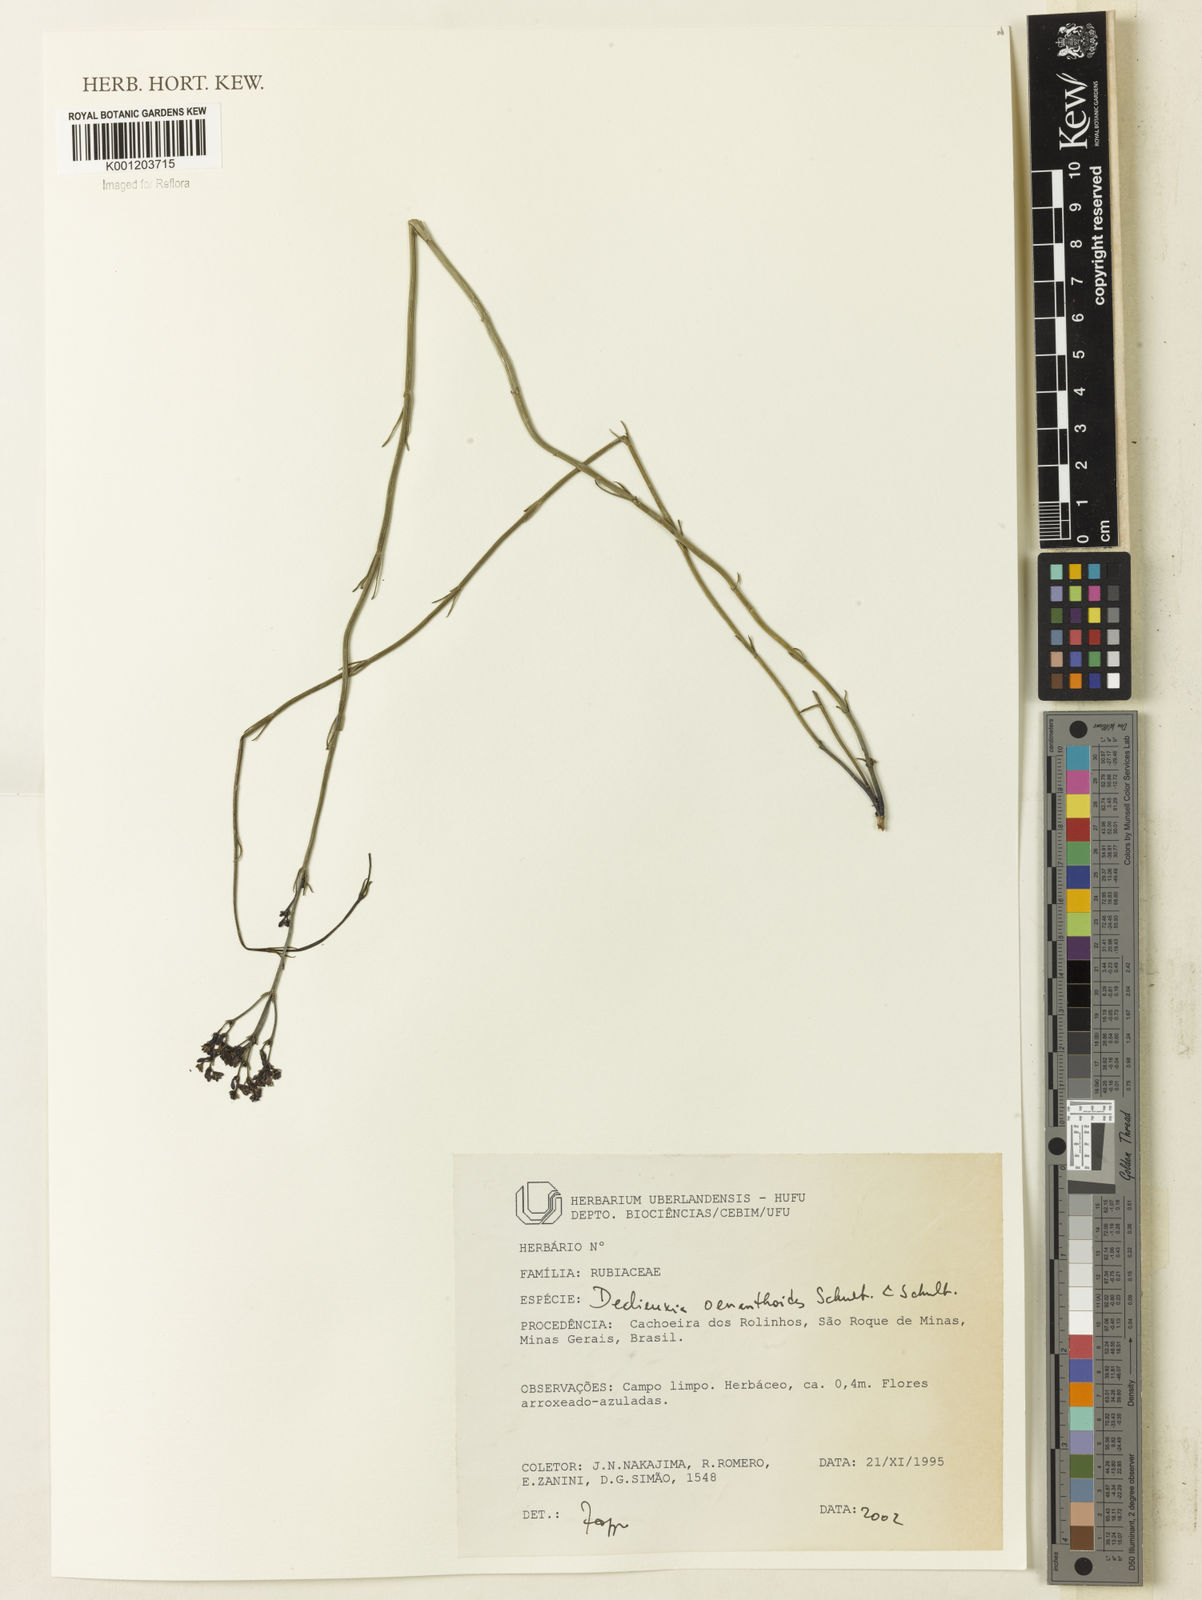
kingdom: Plantae
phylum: Tracheophyta
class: Magnoliopsida
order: Gentianales
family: Rubiaceae
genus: Declieuxia
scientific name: Declieuxia
